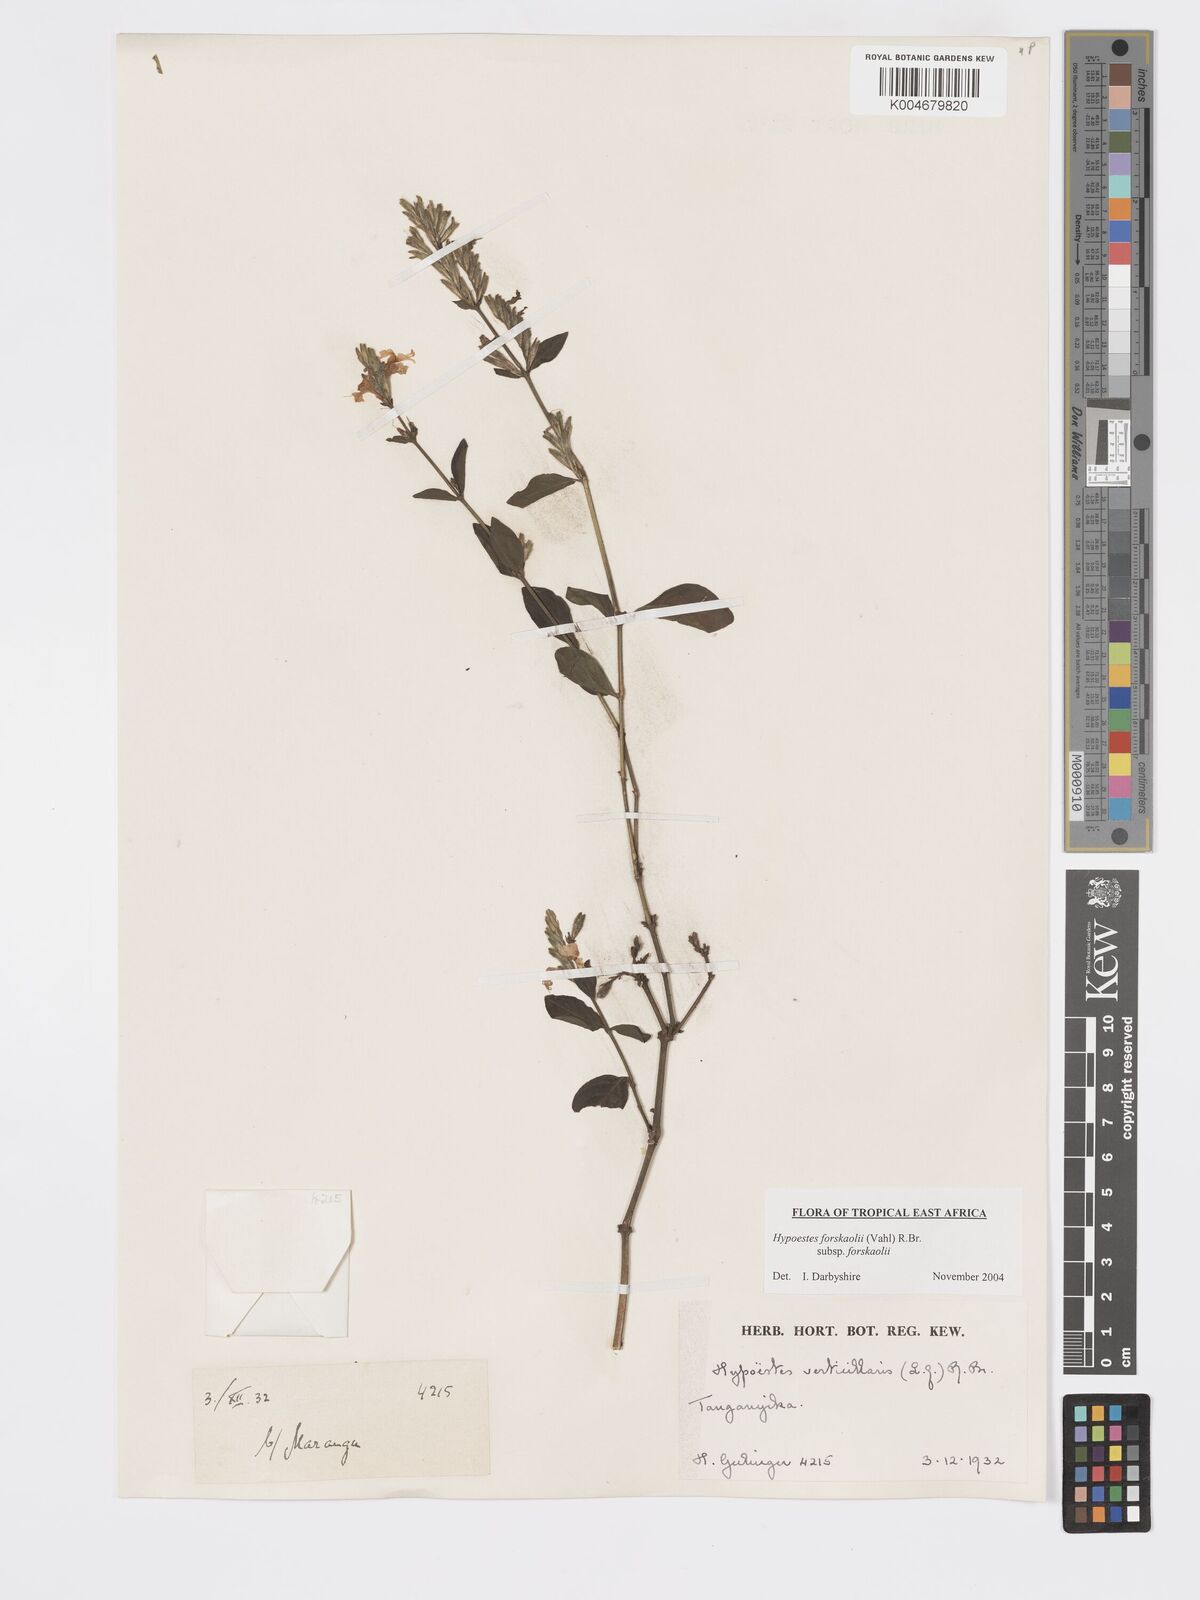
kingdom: Plantae
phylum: Tracheophyta
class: Magnoliopsida
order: Lamiales
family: Acanthaceae
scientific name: Acanthaceae
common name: Acanthaceae
